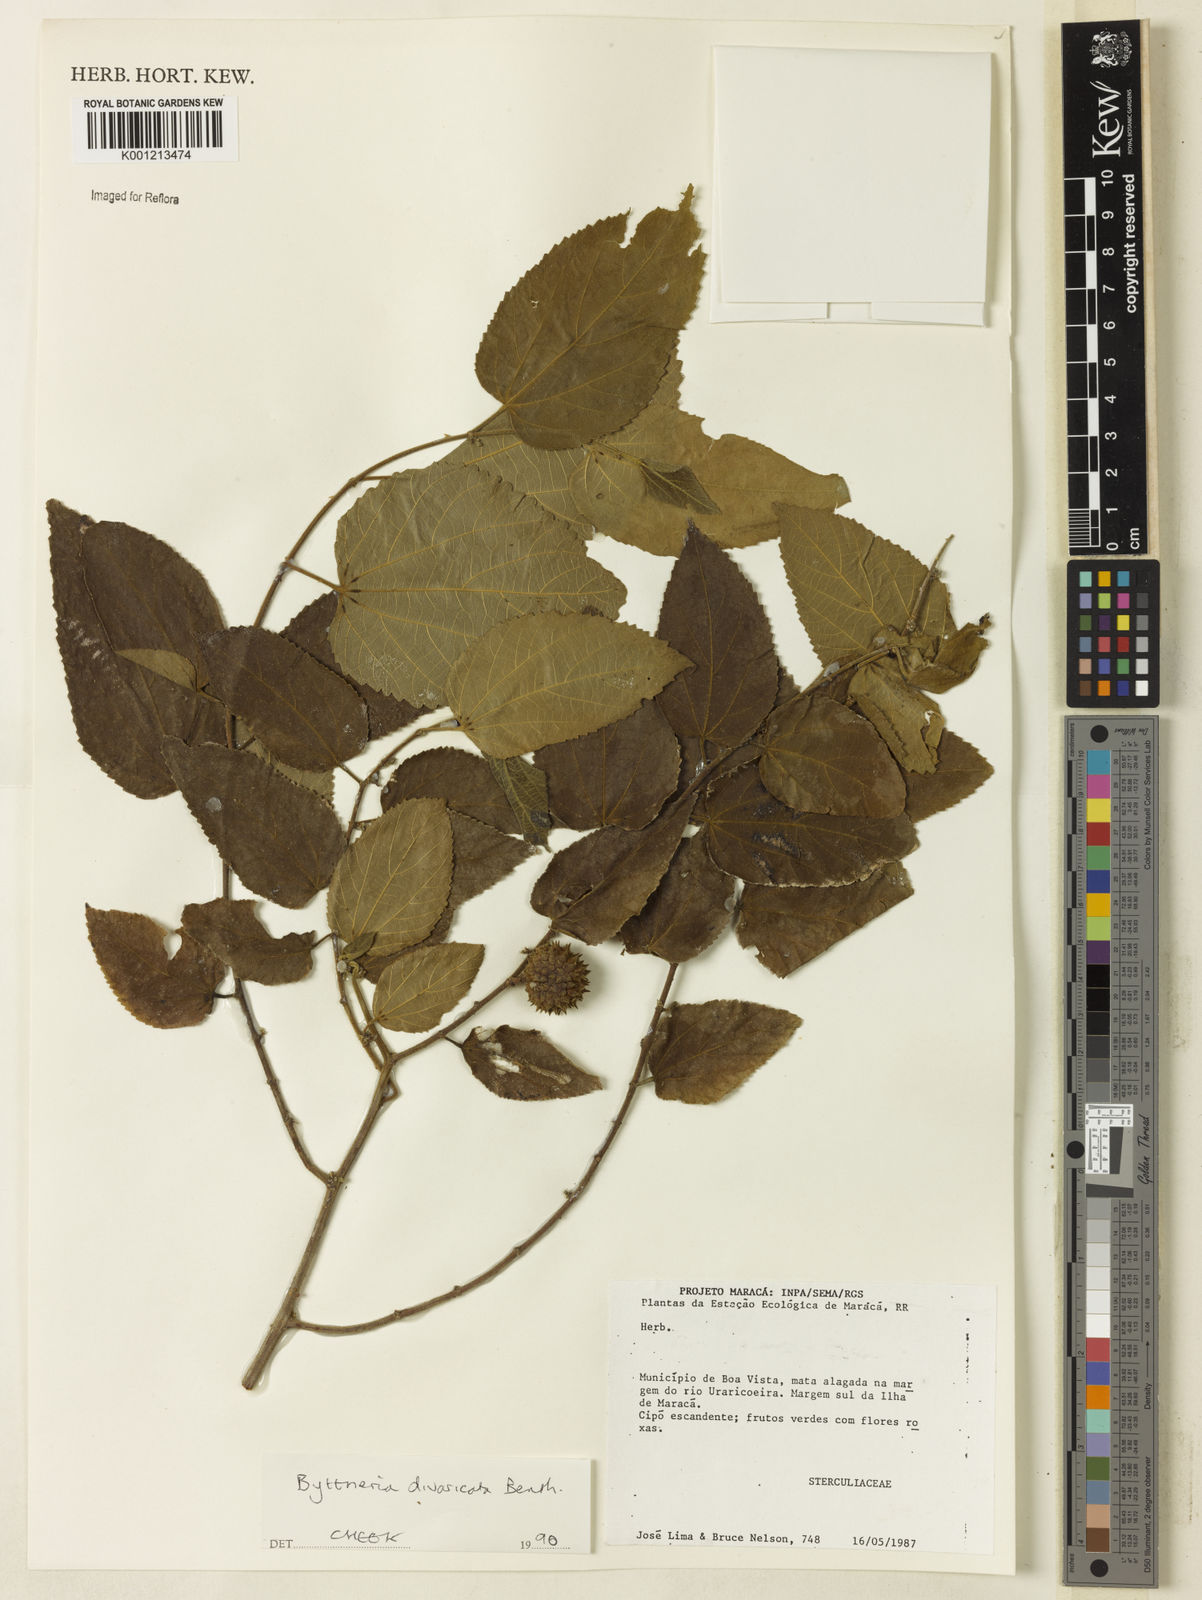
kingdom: Plantae
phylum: Tracheophyta
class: Magnoliopsida
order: Malvales
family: Malvaceae
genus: Byttneria
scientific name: Byttneria divaricata
